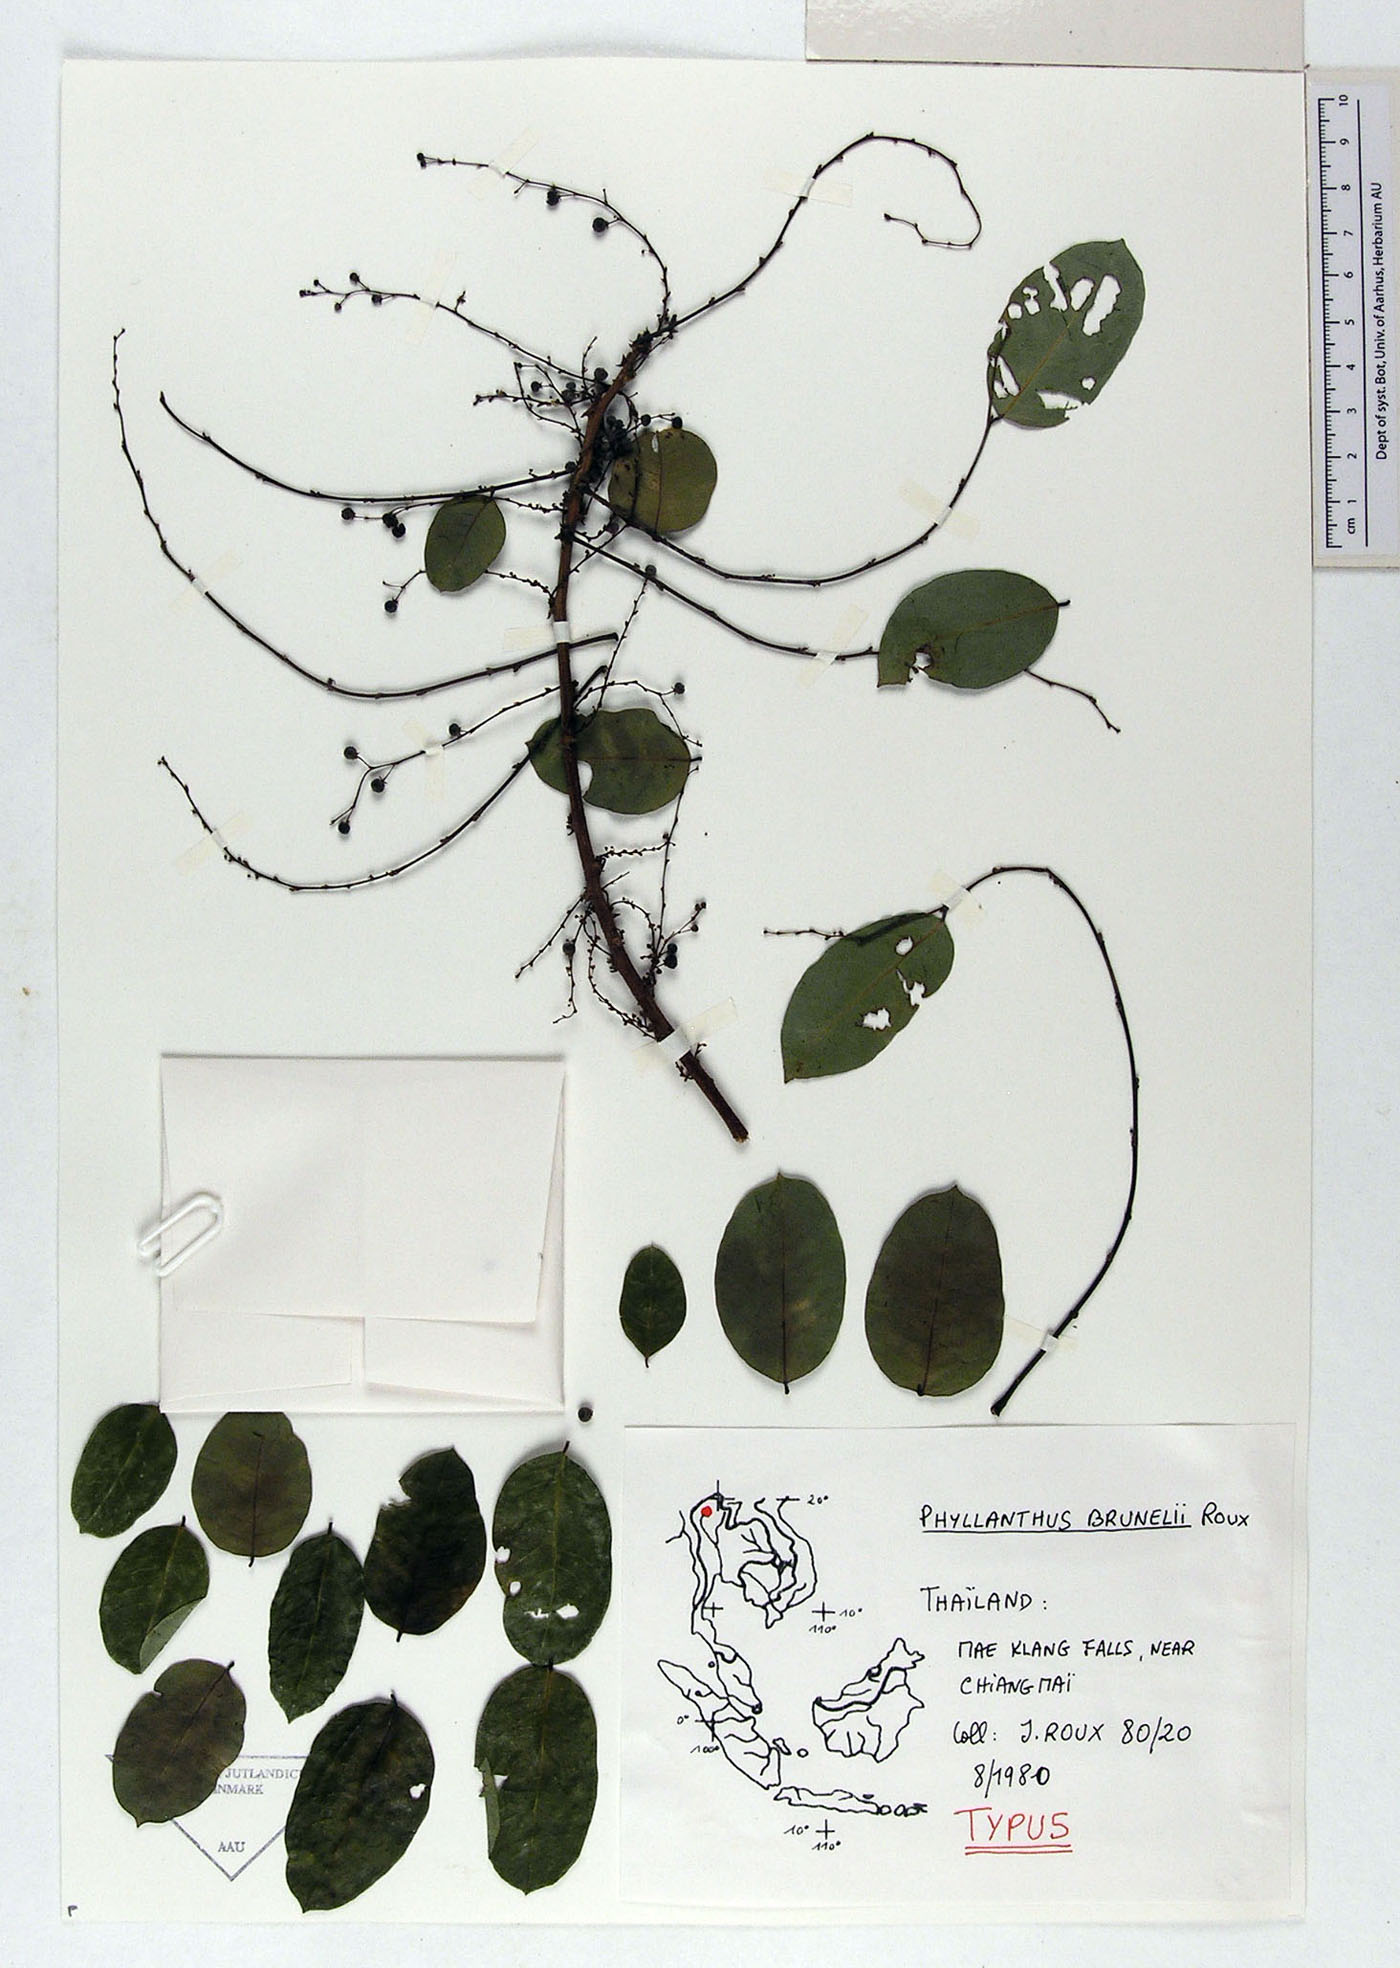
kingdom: Plantae
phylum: Tracheophyta
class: Magnoliopsida
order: Malpighiales
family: Phyllanthaceae
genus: Phyllanthus
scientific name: Phyllanthus microcarpus
